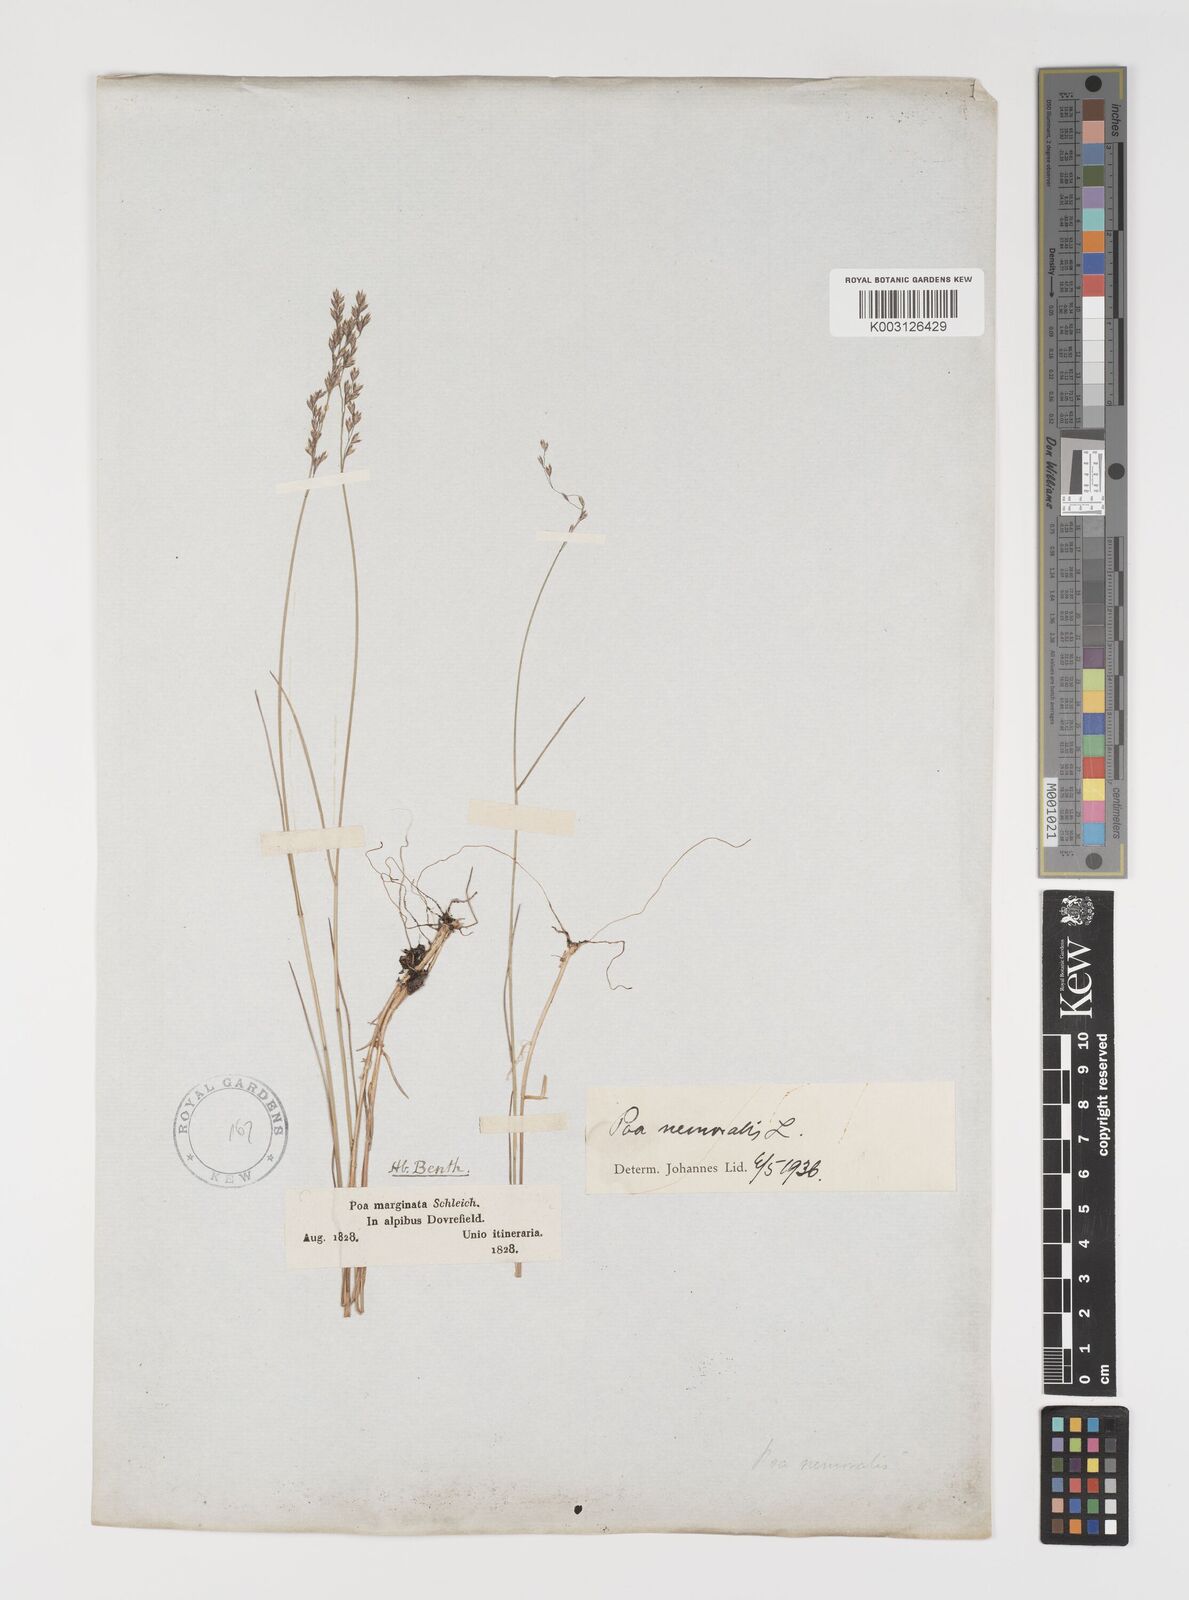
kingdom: Plantae
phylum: Tracheophyta
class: Liliopsida
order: Poales
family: Poaceae
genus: Poa
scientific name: Poa nemoralis
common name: Wood bluegrass
